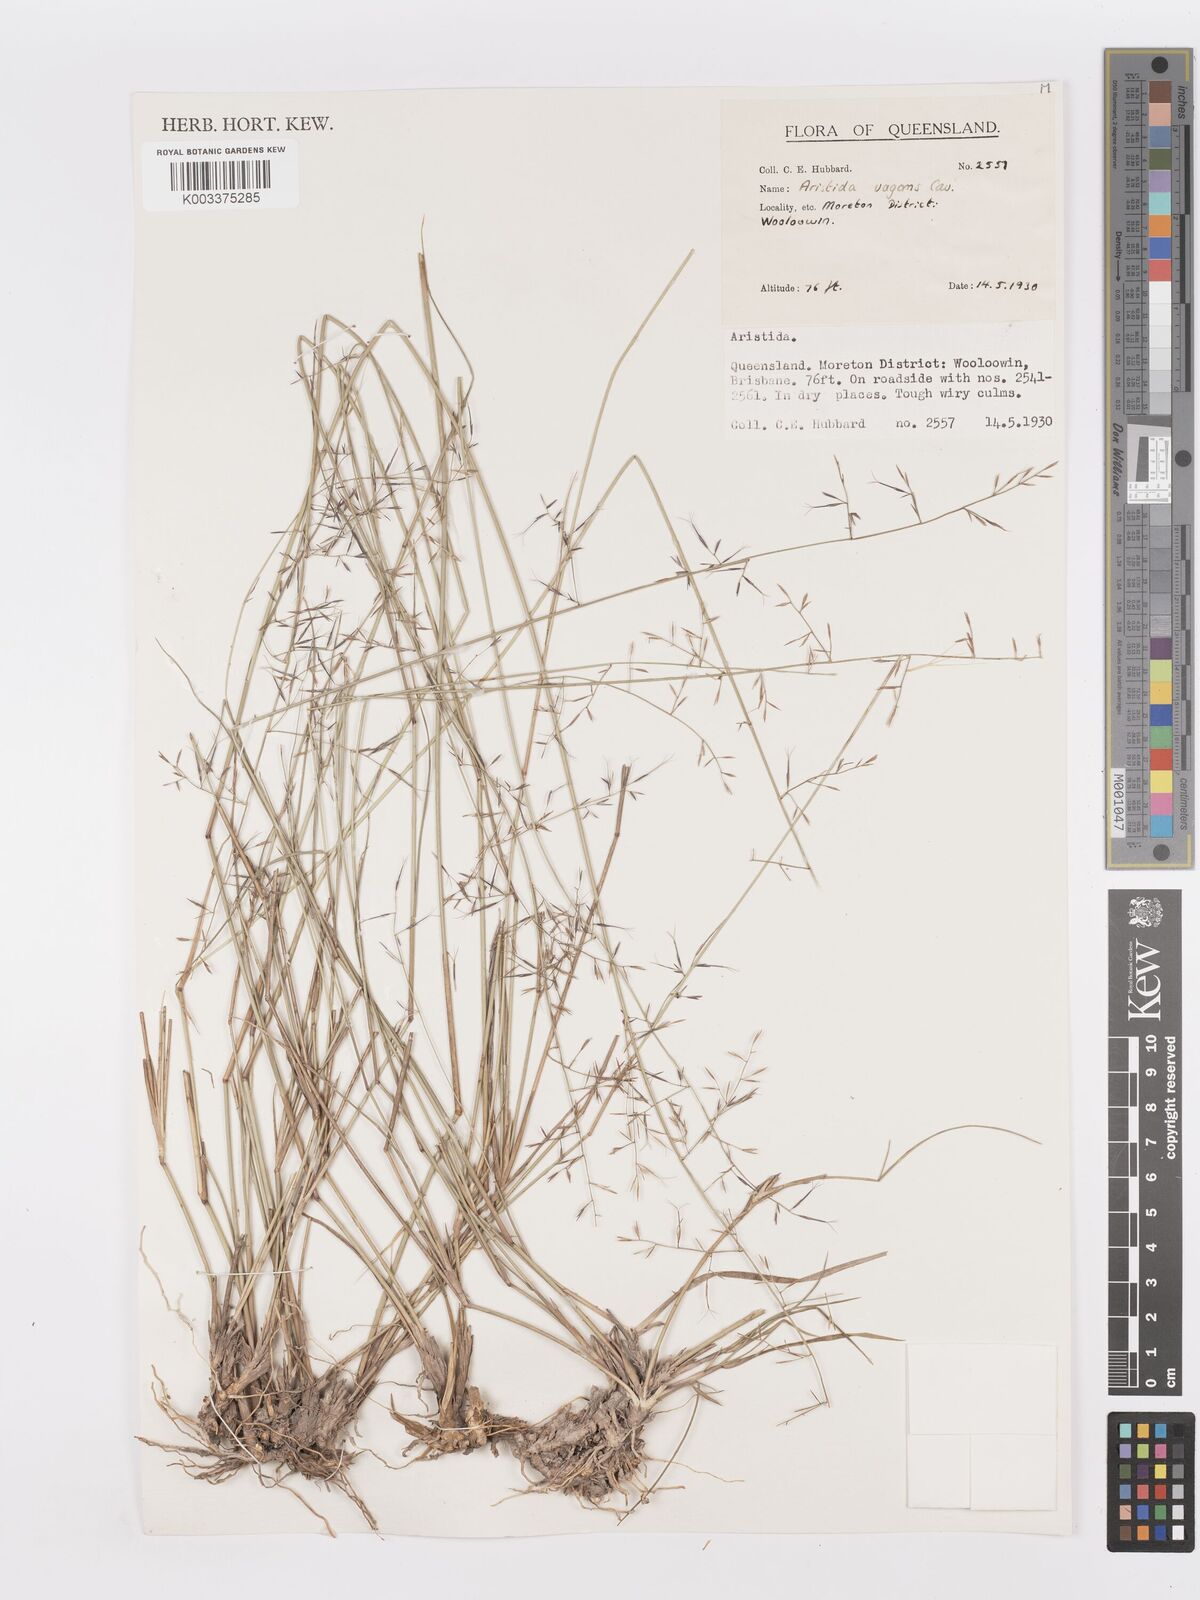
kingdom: Plantae
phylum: Tracheophyta
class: Liliopsida
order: Poales
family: Poaceae
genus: Aristida
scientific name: Aristida vagans
